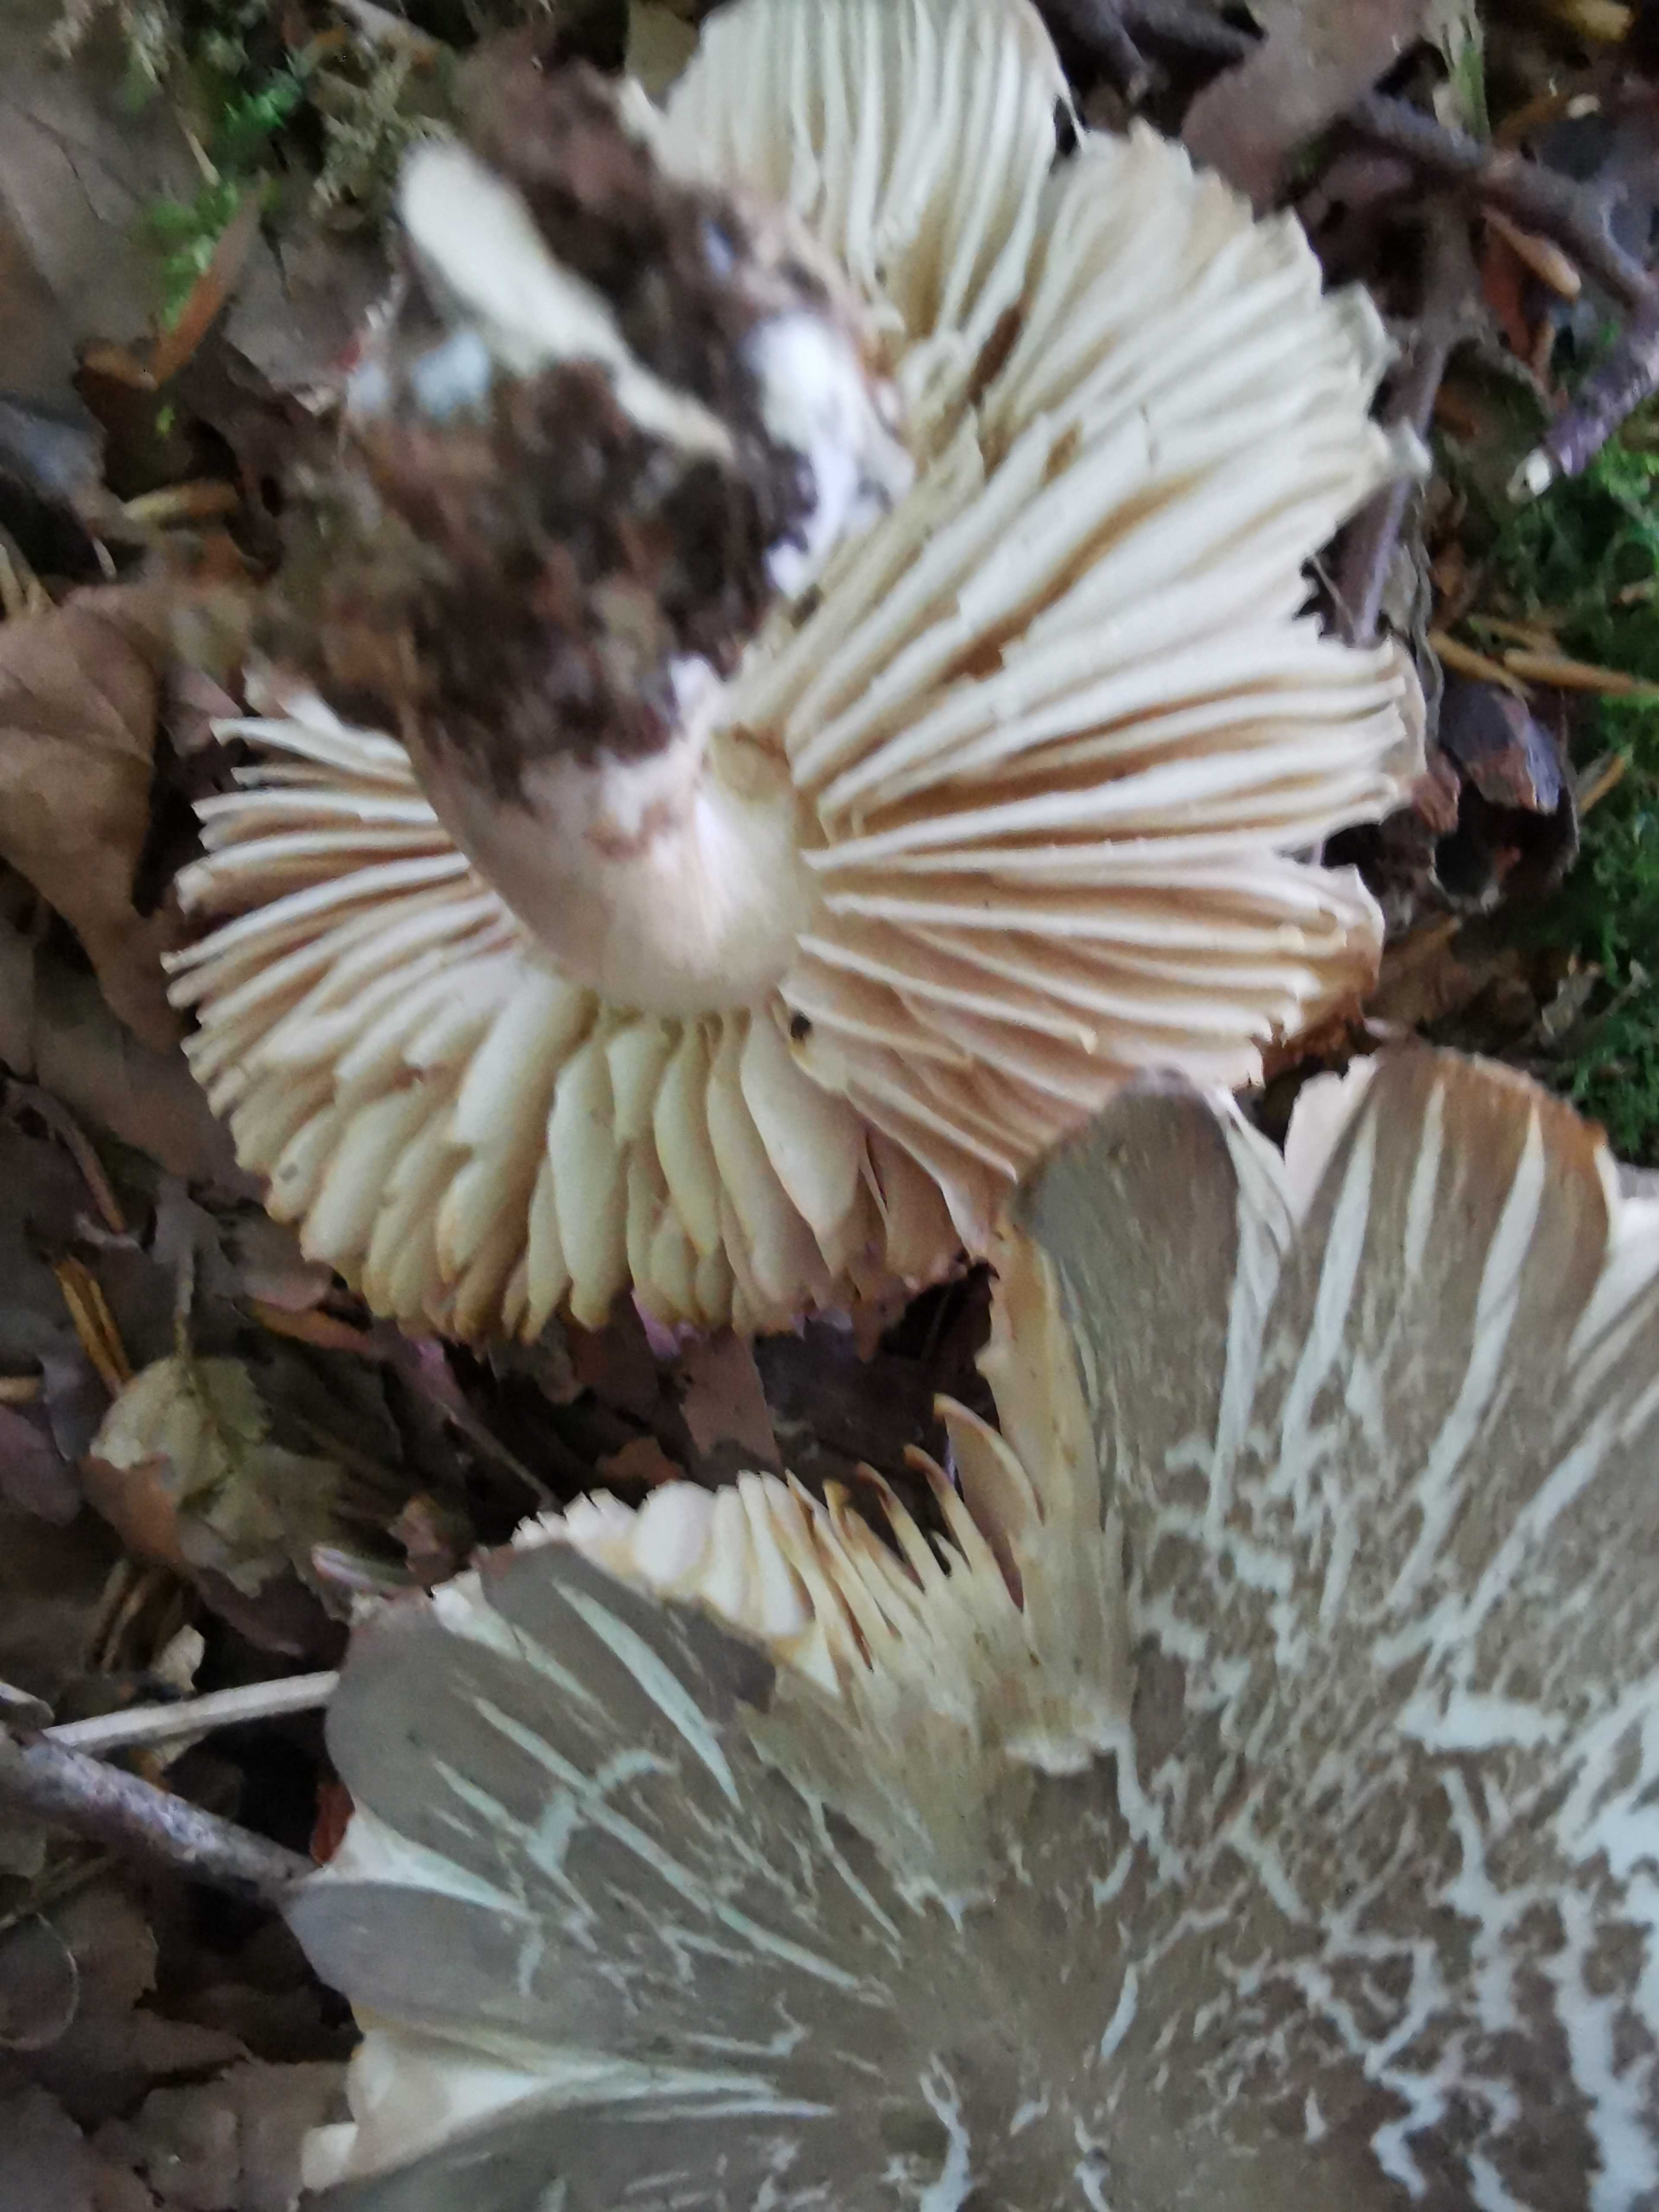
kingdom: Fungi
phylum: Basidiomycota
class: Agaricomycetes
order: Agaricales
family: Tricholomataceae
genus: Megacollybia
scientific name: Megacollybia platyphylla
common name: bredbladet væbnerhat
